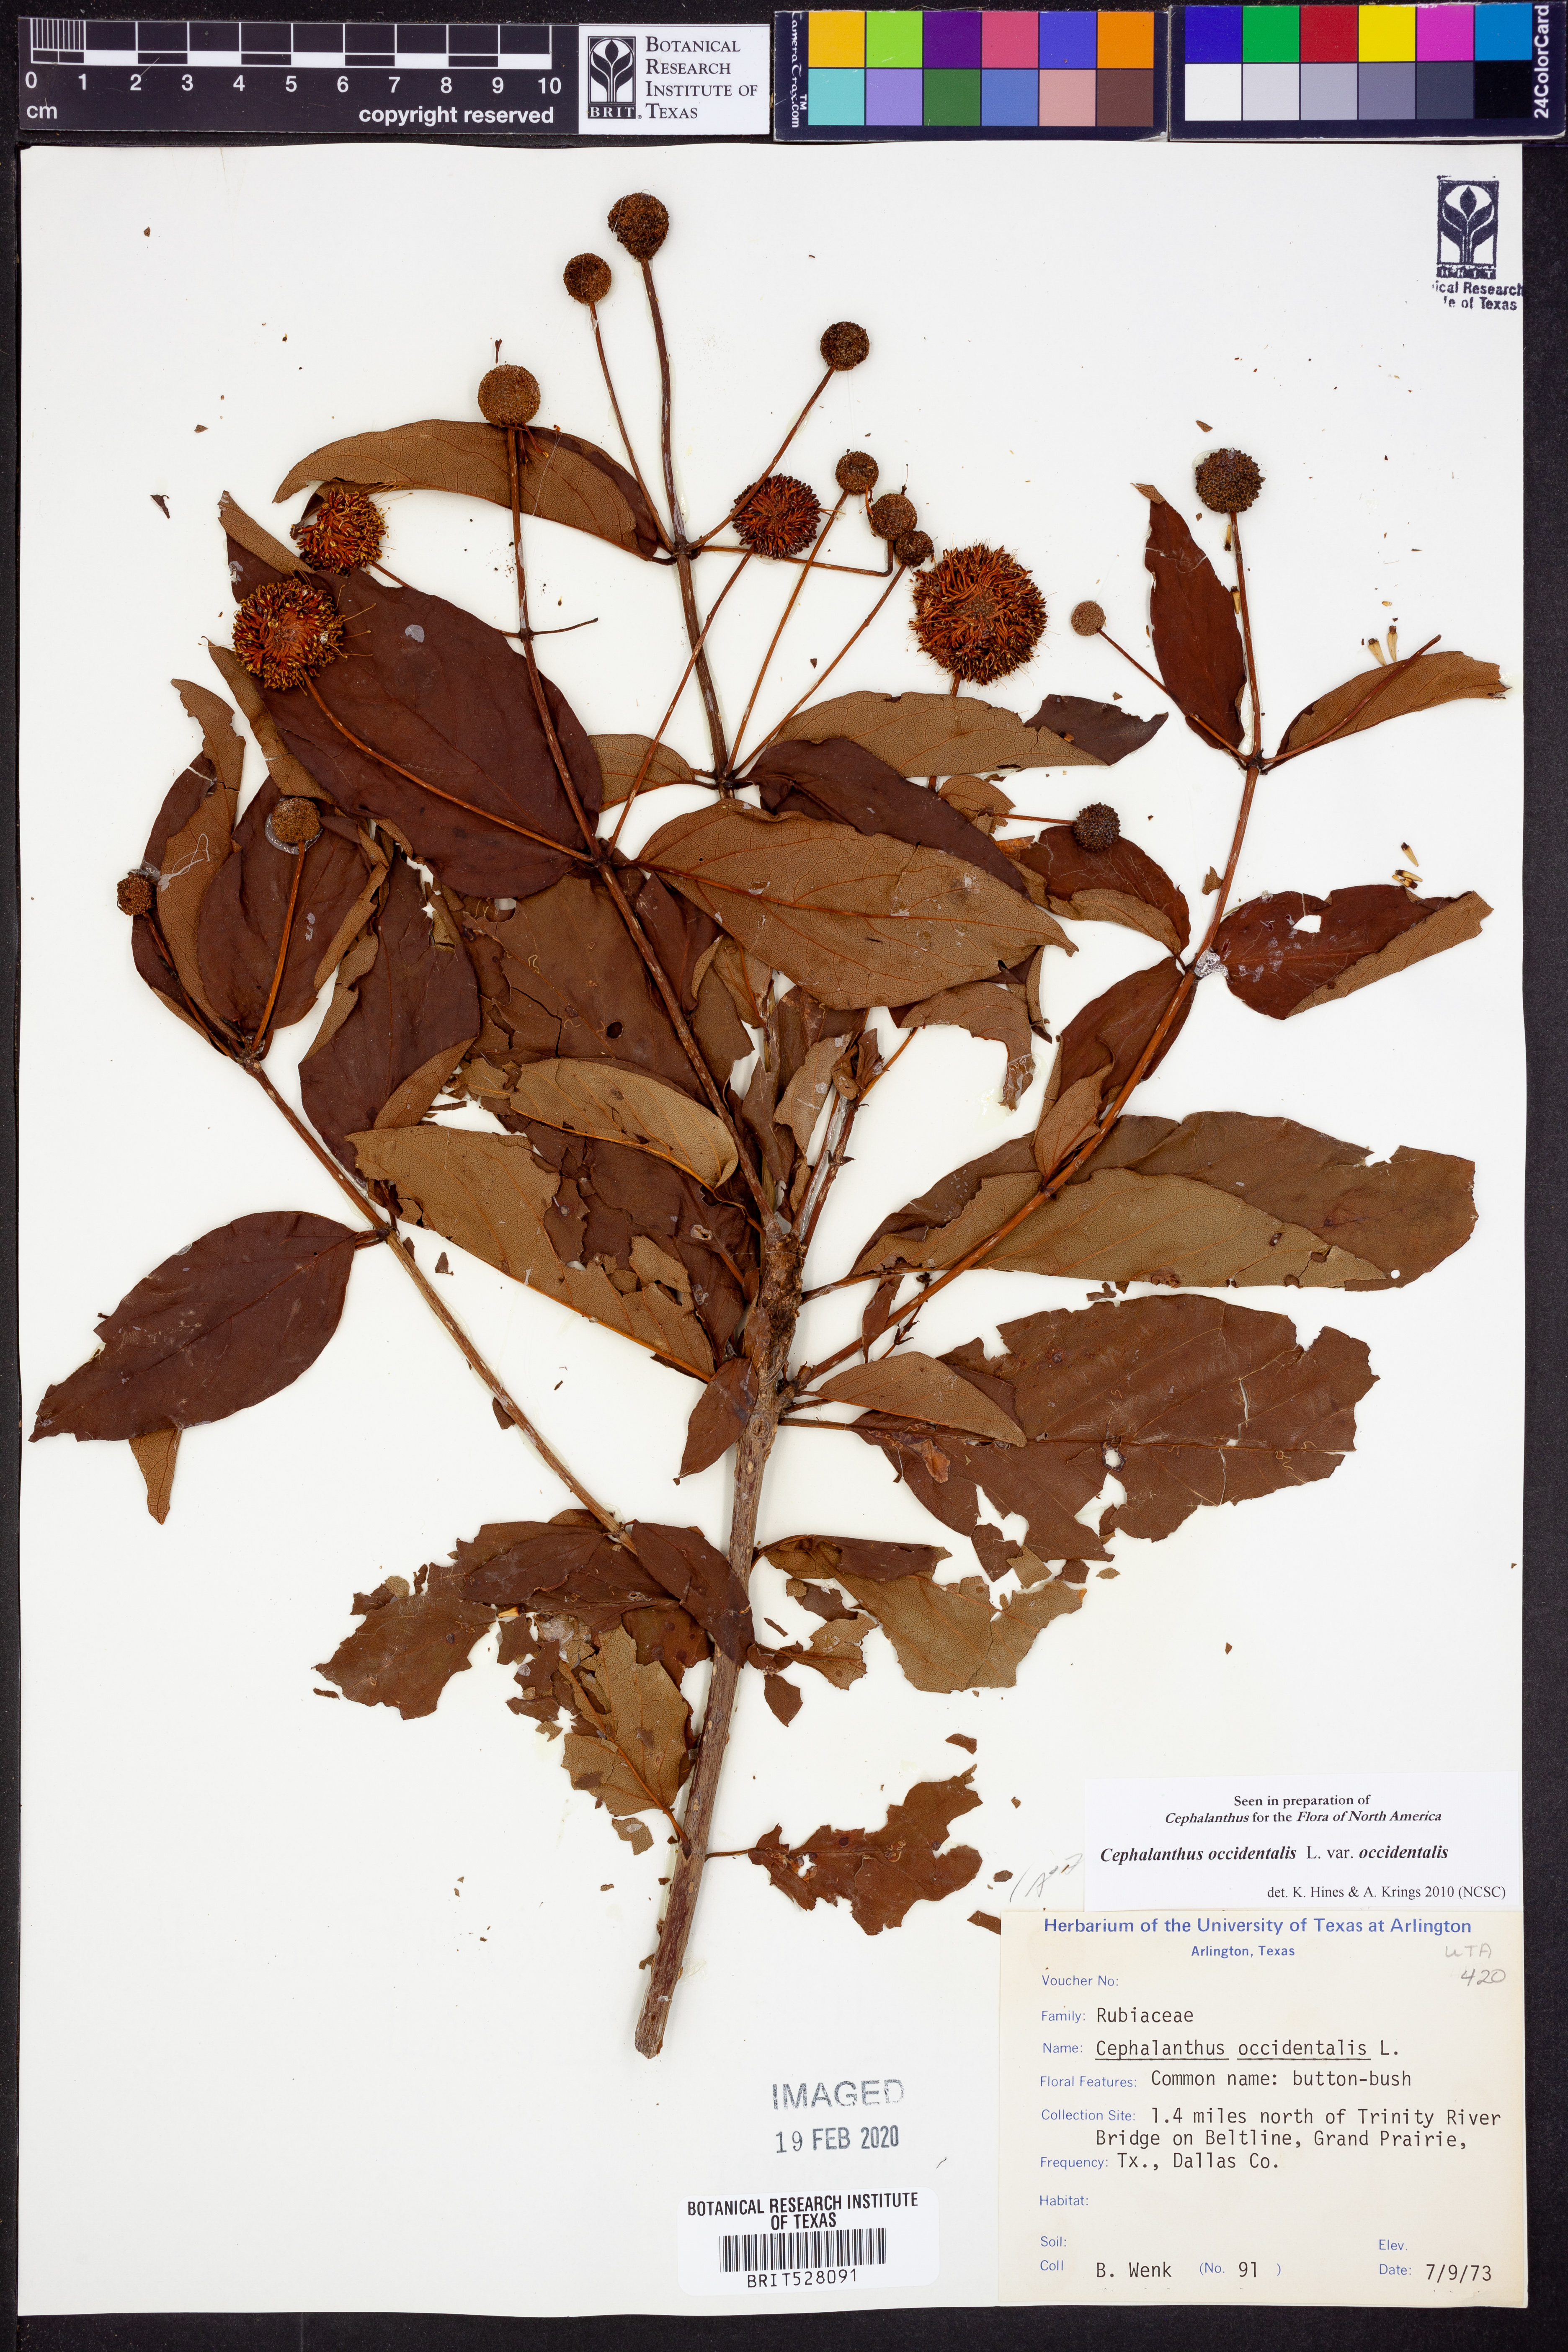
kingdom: Plantae
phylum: Tracheophyta
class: Magnoliopsida
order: Gentianales
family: Rubiaceae
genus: Cephalanthus
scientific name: Cephalanthus occidentalis
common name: Button-willow
